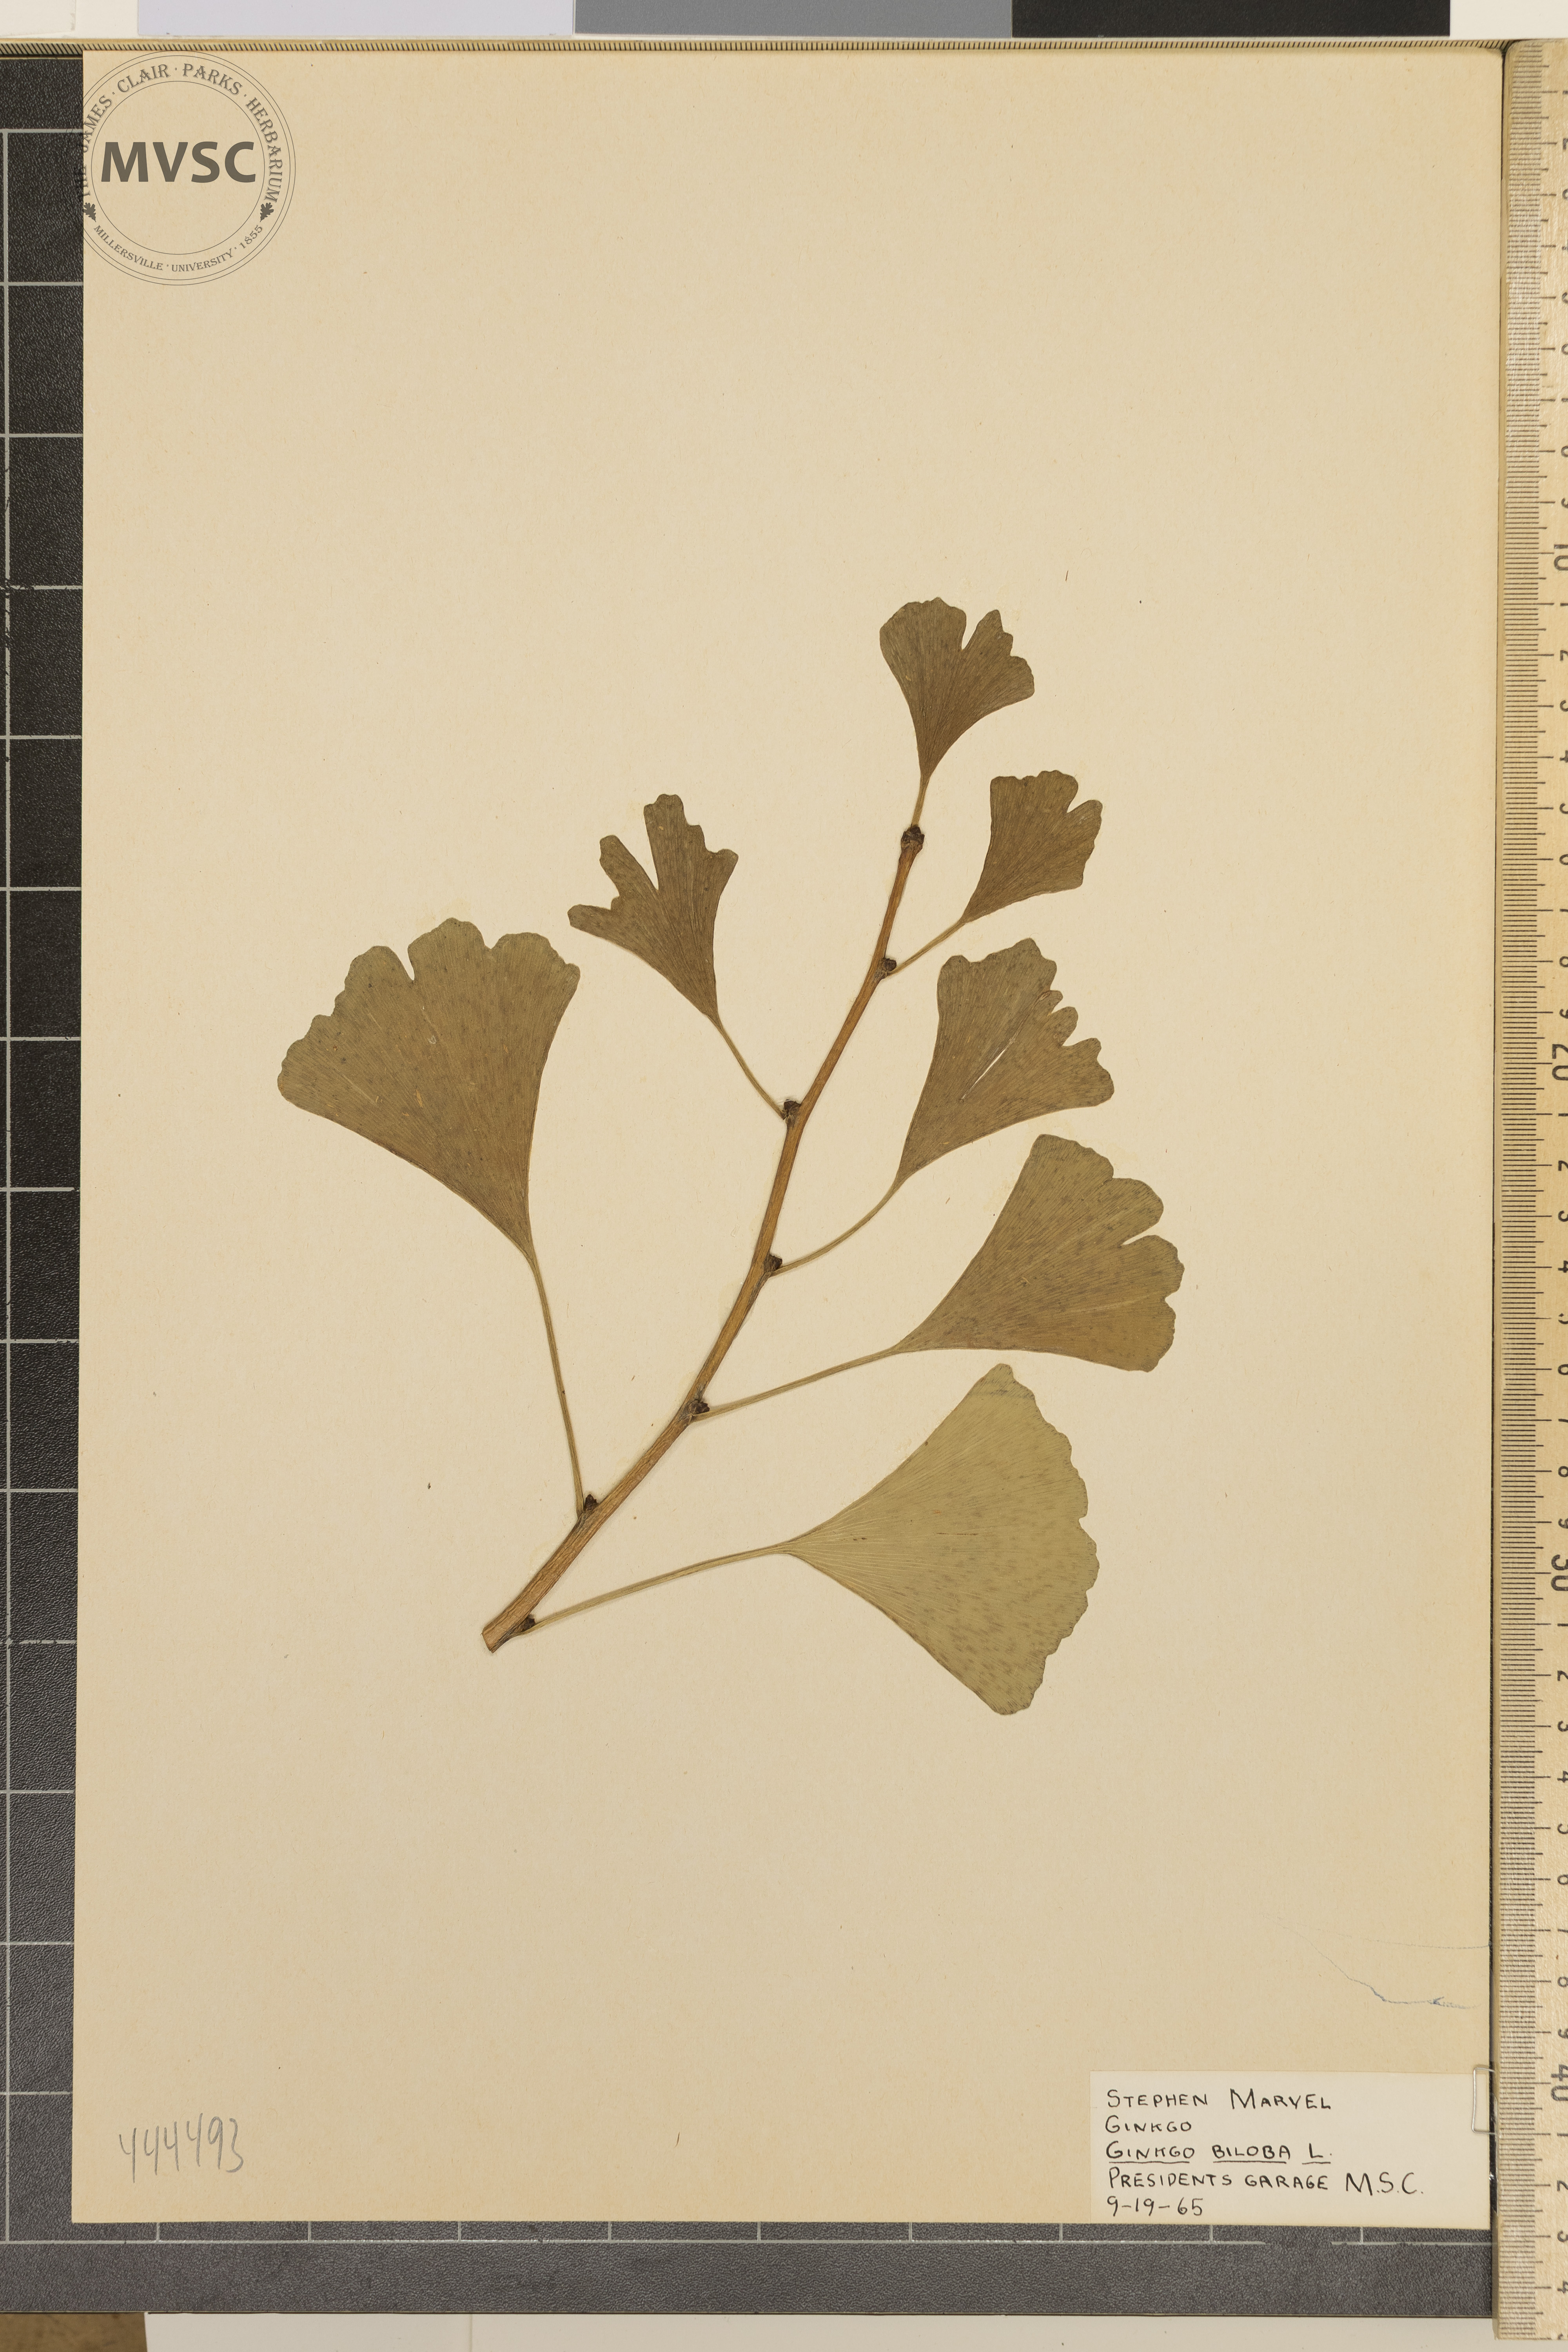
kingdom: Plantae
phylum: Tracheophyta
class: Ginkgoopsida
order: Ginkgoales
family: Ginkgoaceae
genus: Ginkgo
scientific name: Ginkgo biloba
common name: Ginkgo
